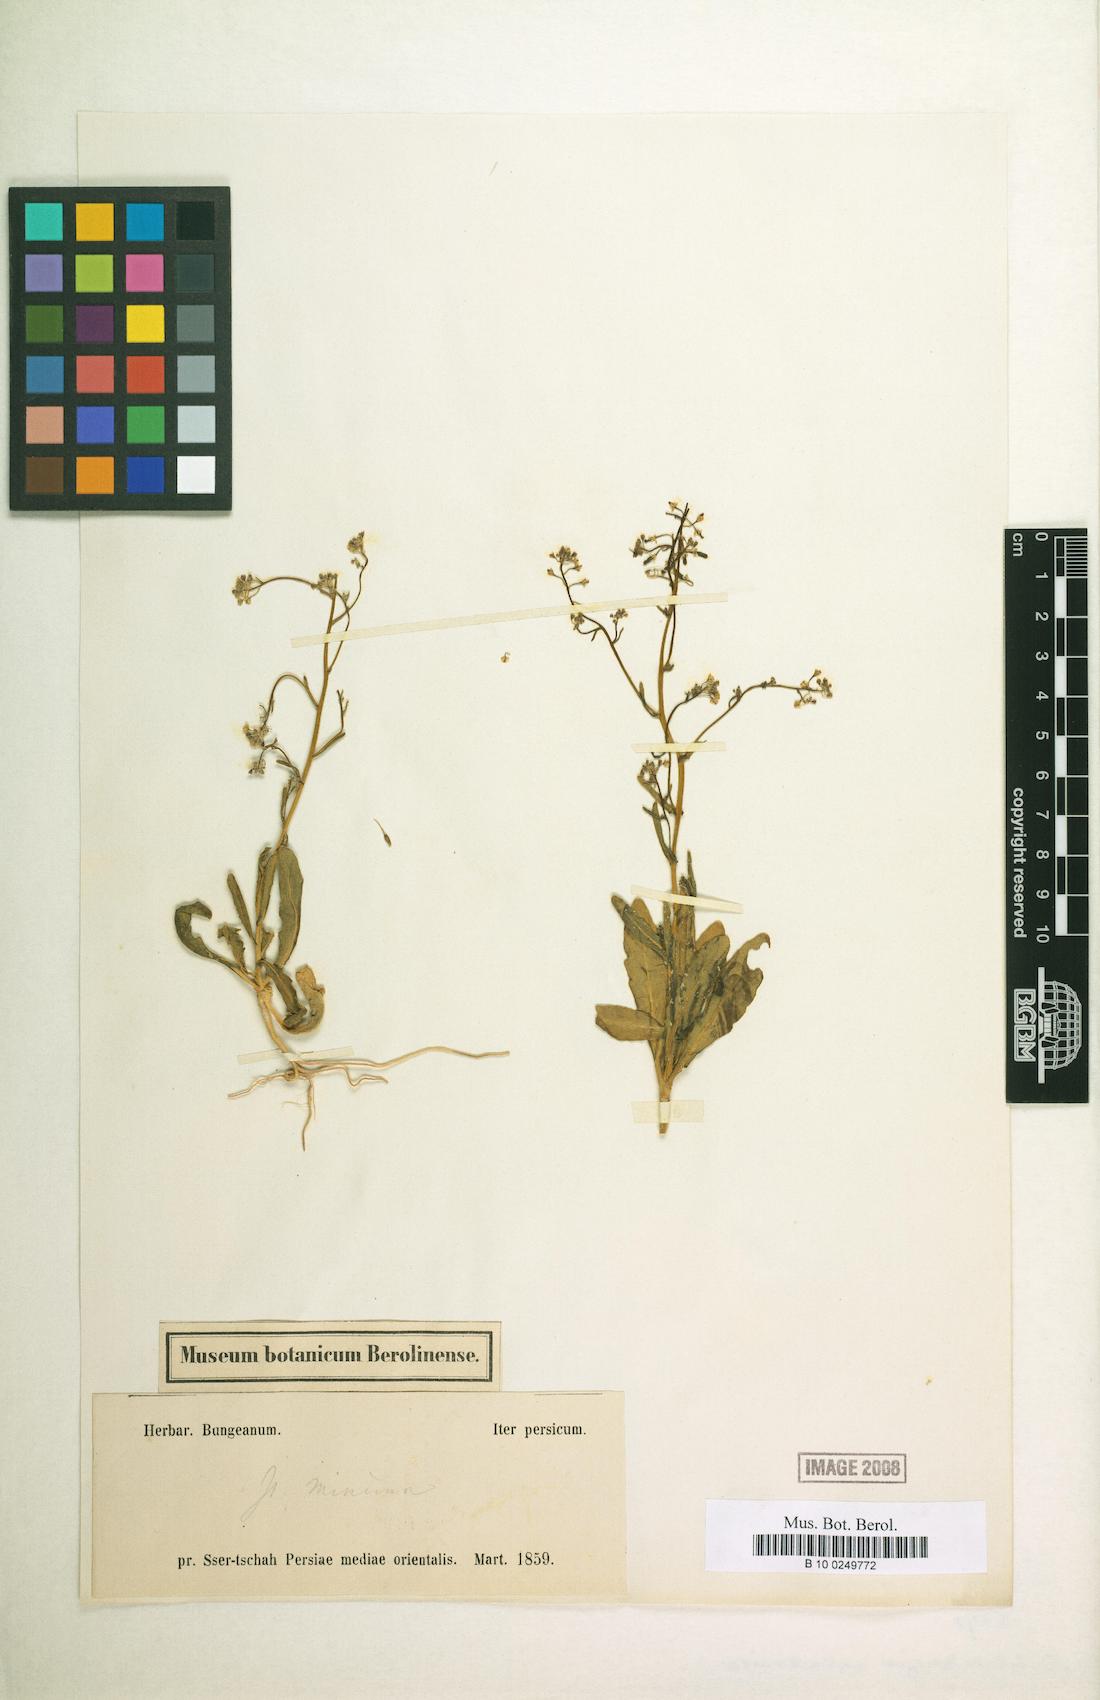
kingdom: Plantae
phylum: Tracheophyta
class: Magnoliopsida
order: Brassicales
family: Brassicaceae
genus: Isatis
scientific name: Isatis minima
